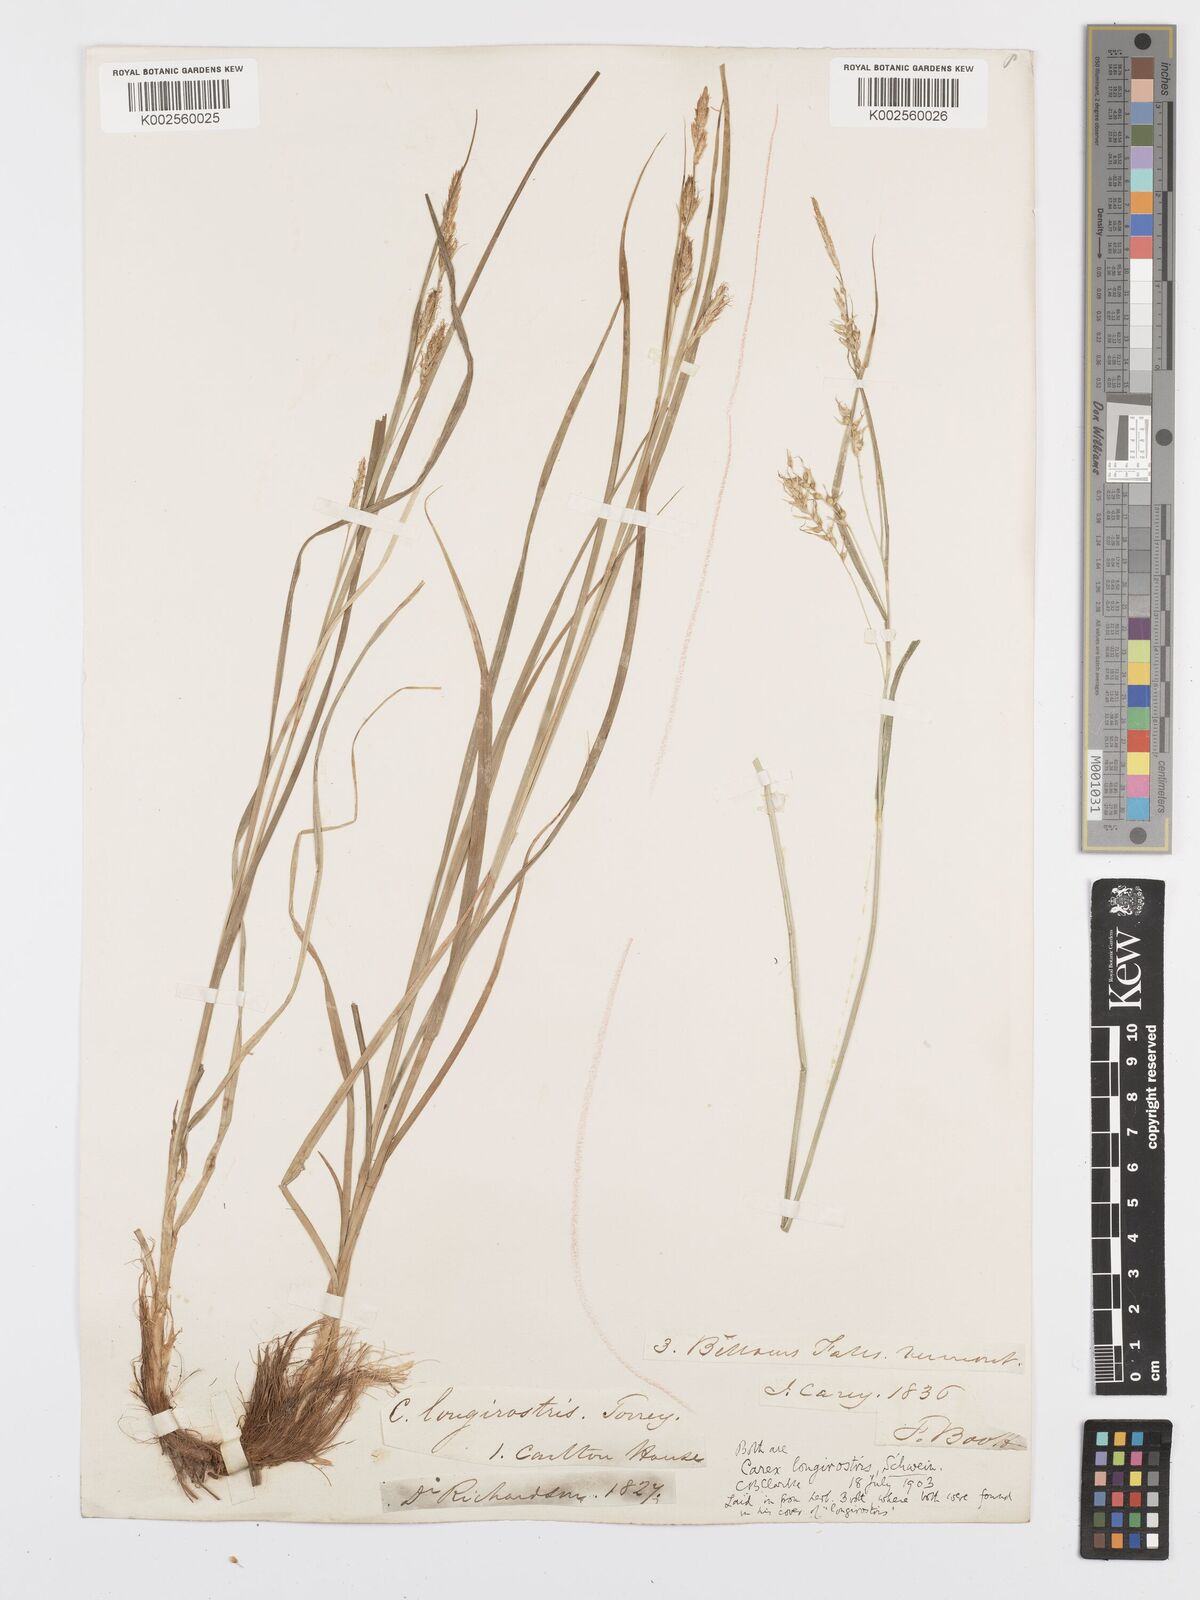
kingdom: Plantae
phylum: Tracheophyta
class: Liliopsida
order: Poales
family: Cyperaceae
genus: Carex
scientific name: Carex sprengelii
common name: Long-beaked sedge
